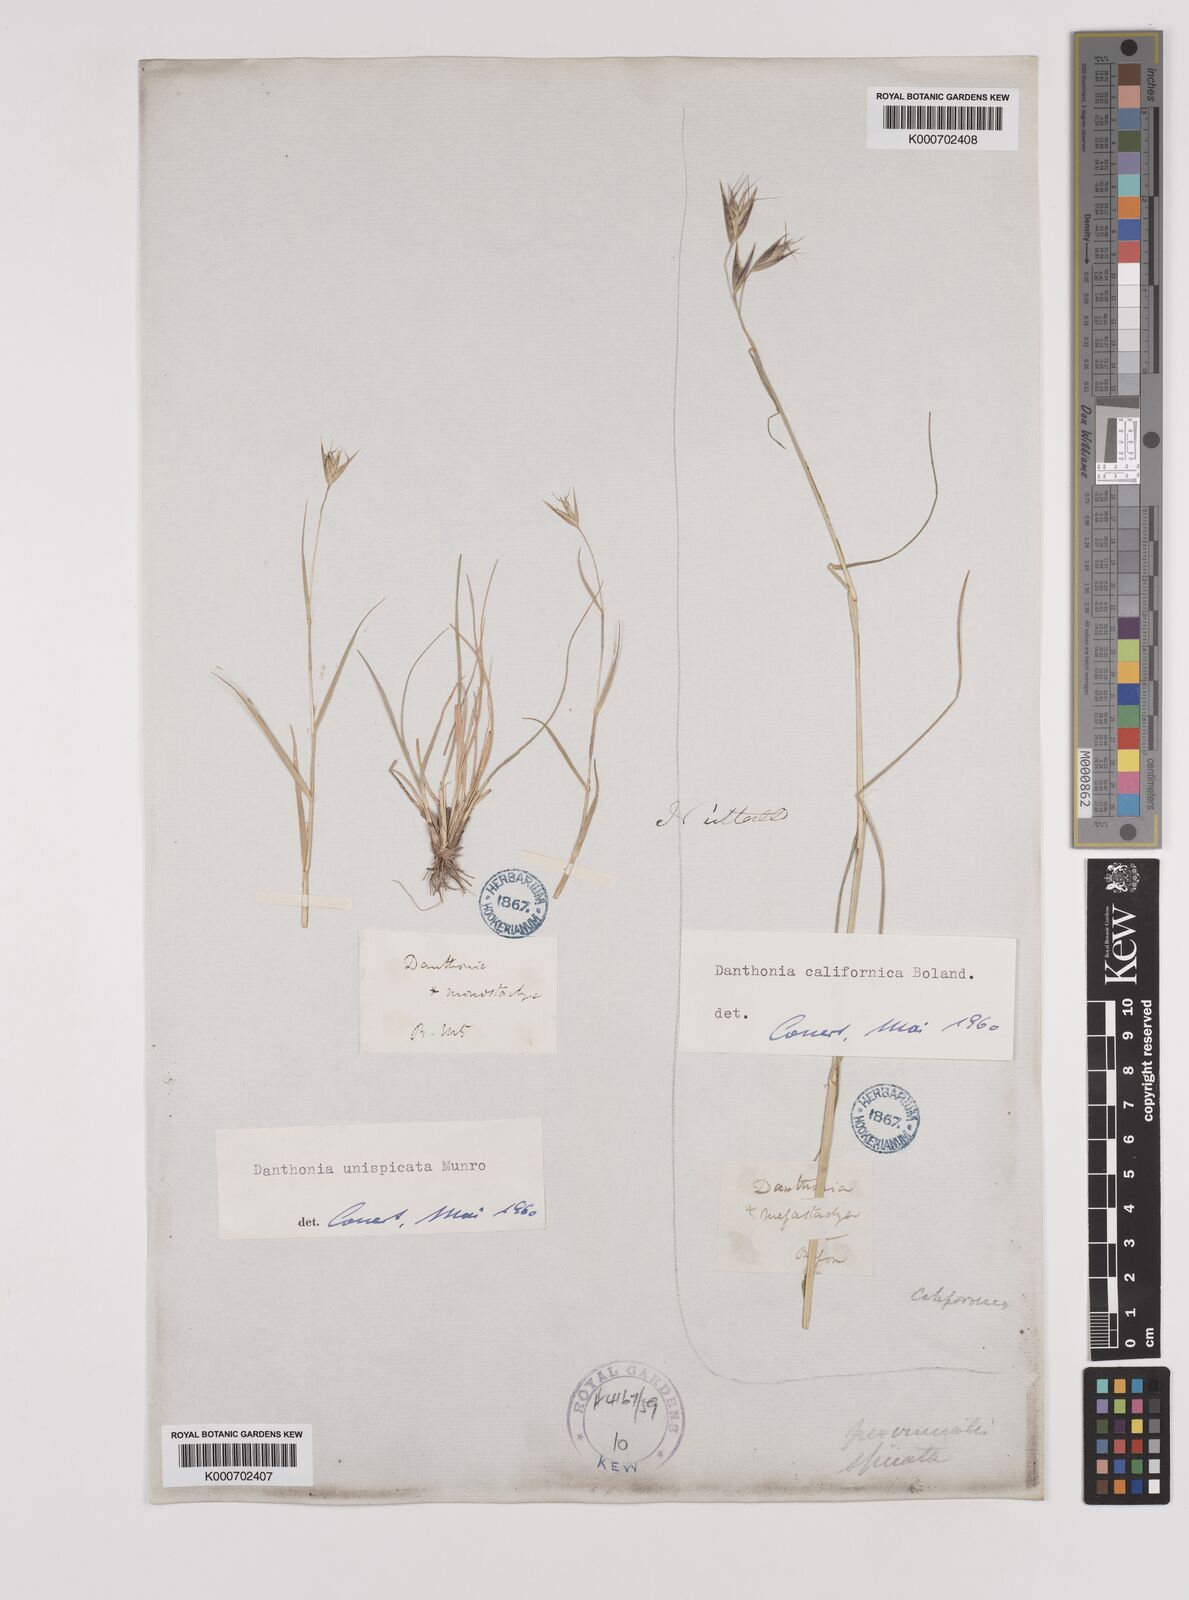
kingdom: Plantae
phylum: Tracheophyta
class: Liliopsida
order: Poales
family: Poaceae
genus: Danthonia
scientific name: Danthonia unispicata
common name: Few-flowered oatgrass
